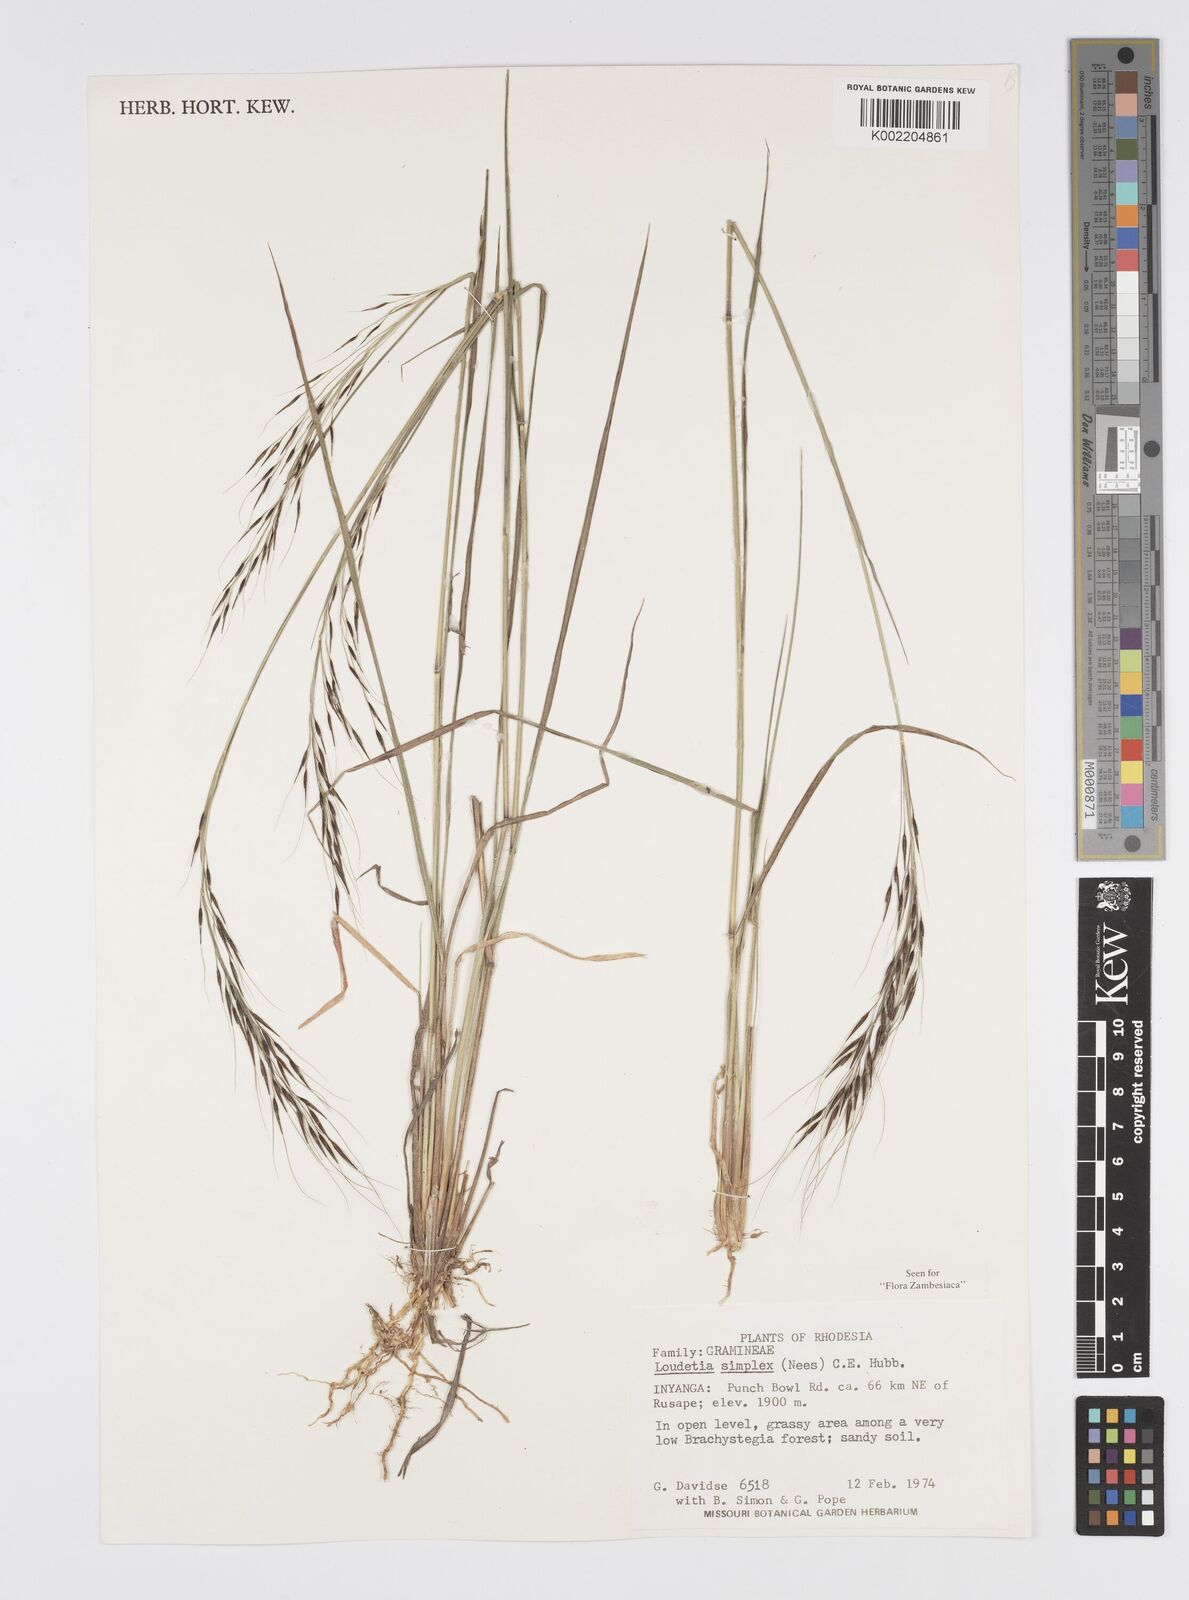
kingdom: Plantae
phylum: Tracheophyta
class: Liliopsida
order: Poales
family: Poaceae
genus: Loudetia
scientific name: Loudetia simplex
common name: Common russet grass
